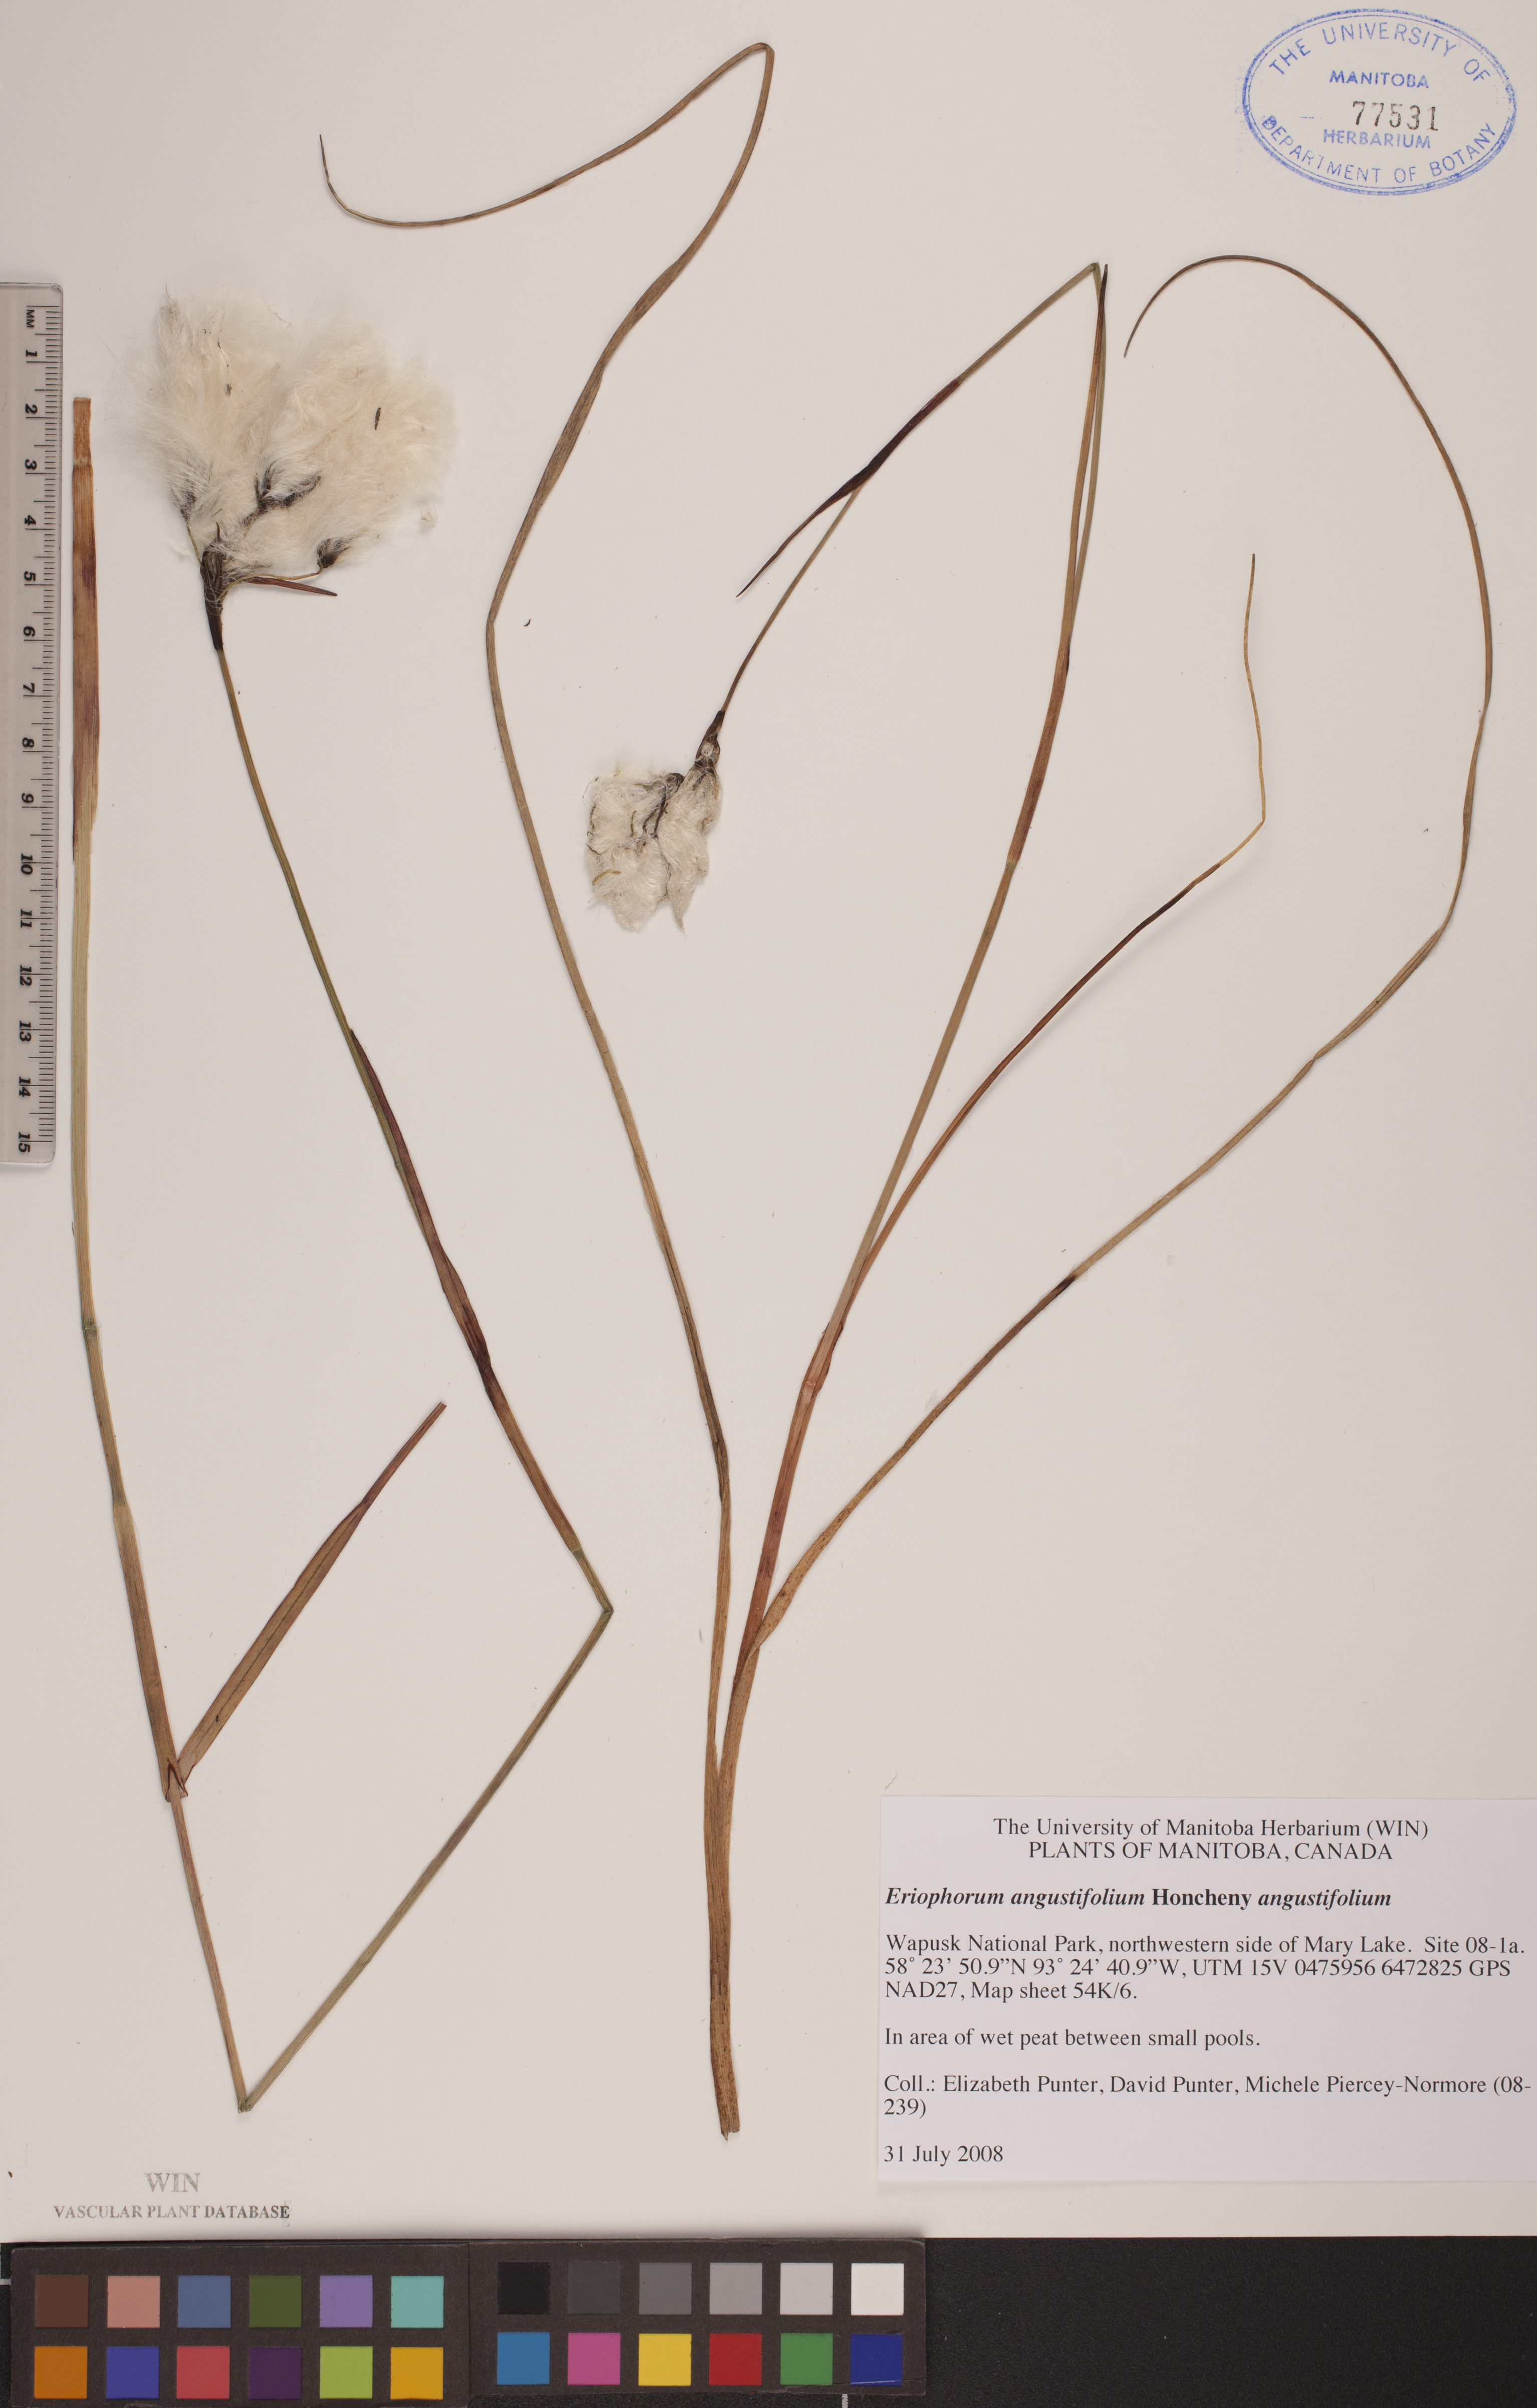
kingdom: Plantae
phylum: Tracheophyta
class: Liliopsida
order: Poales
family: Cyperaceae
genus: Eriophorum
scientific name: Eriophorum angustifolium
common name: Common cottongrass
